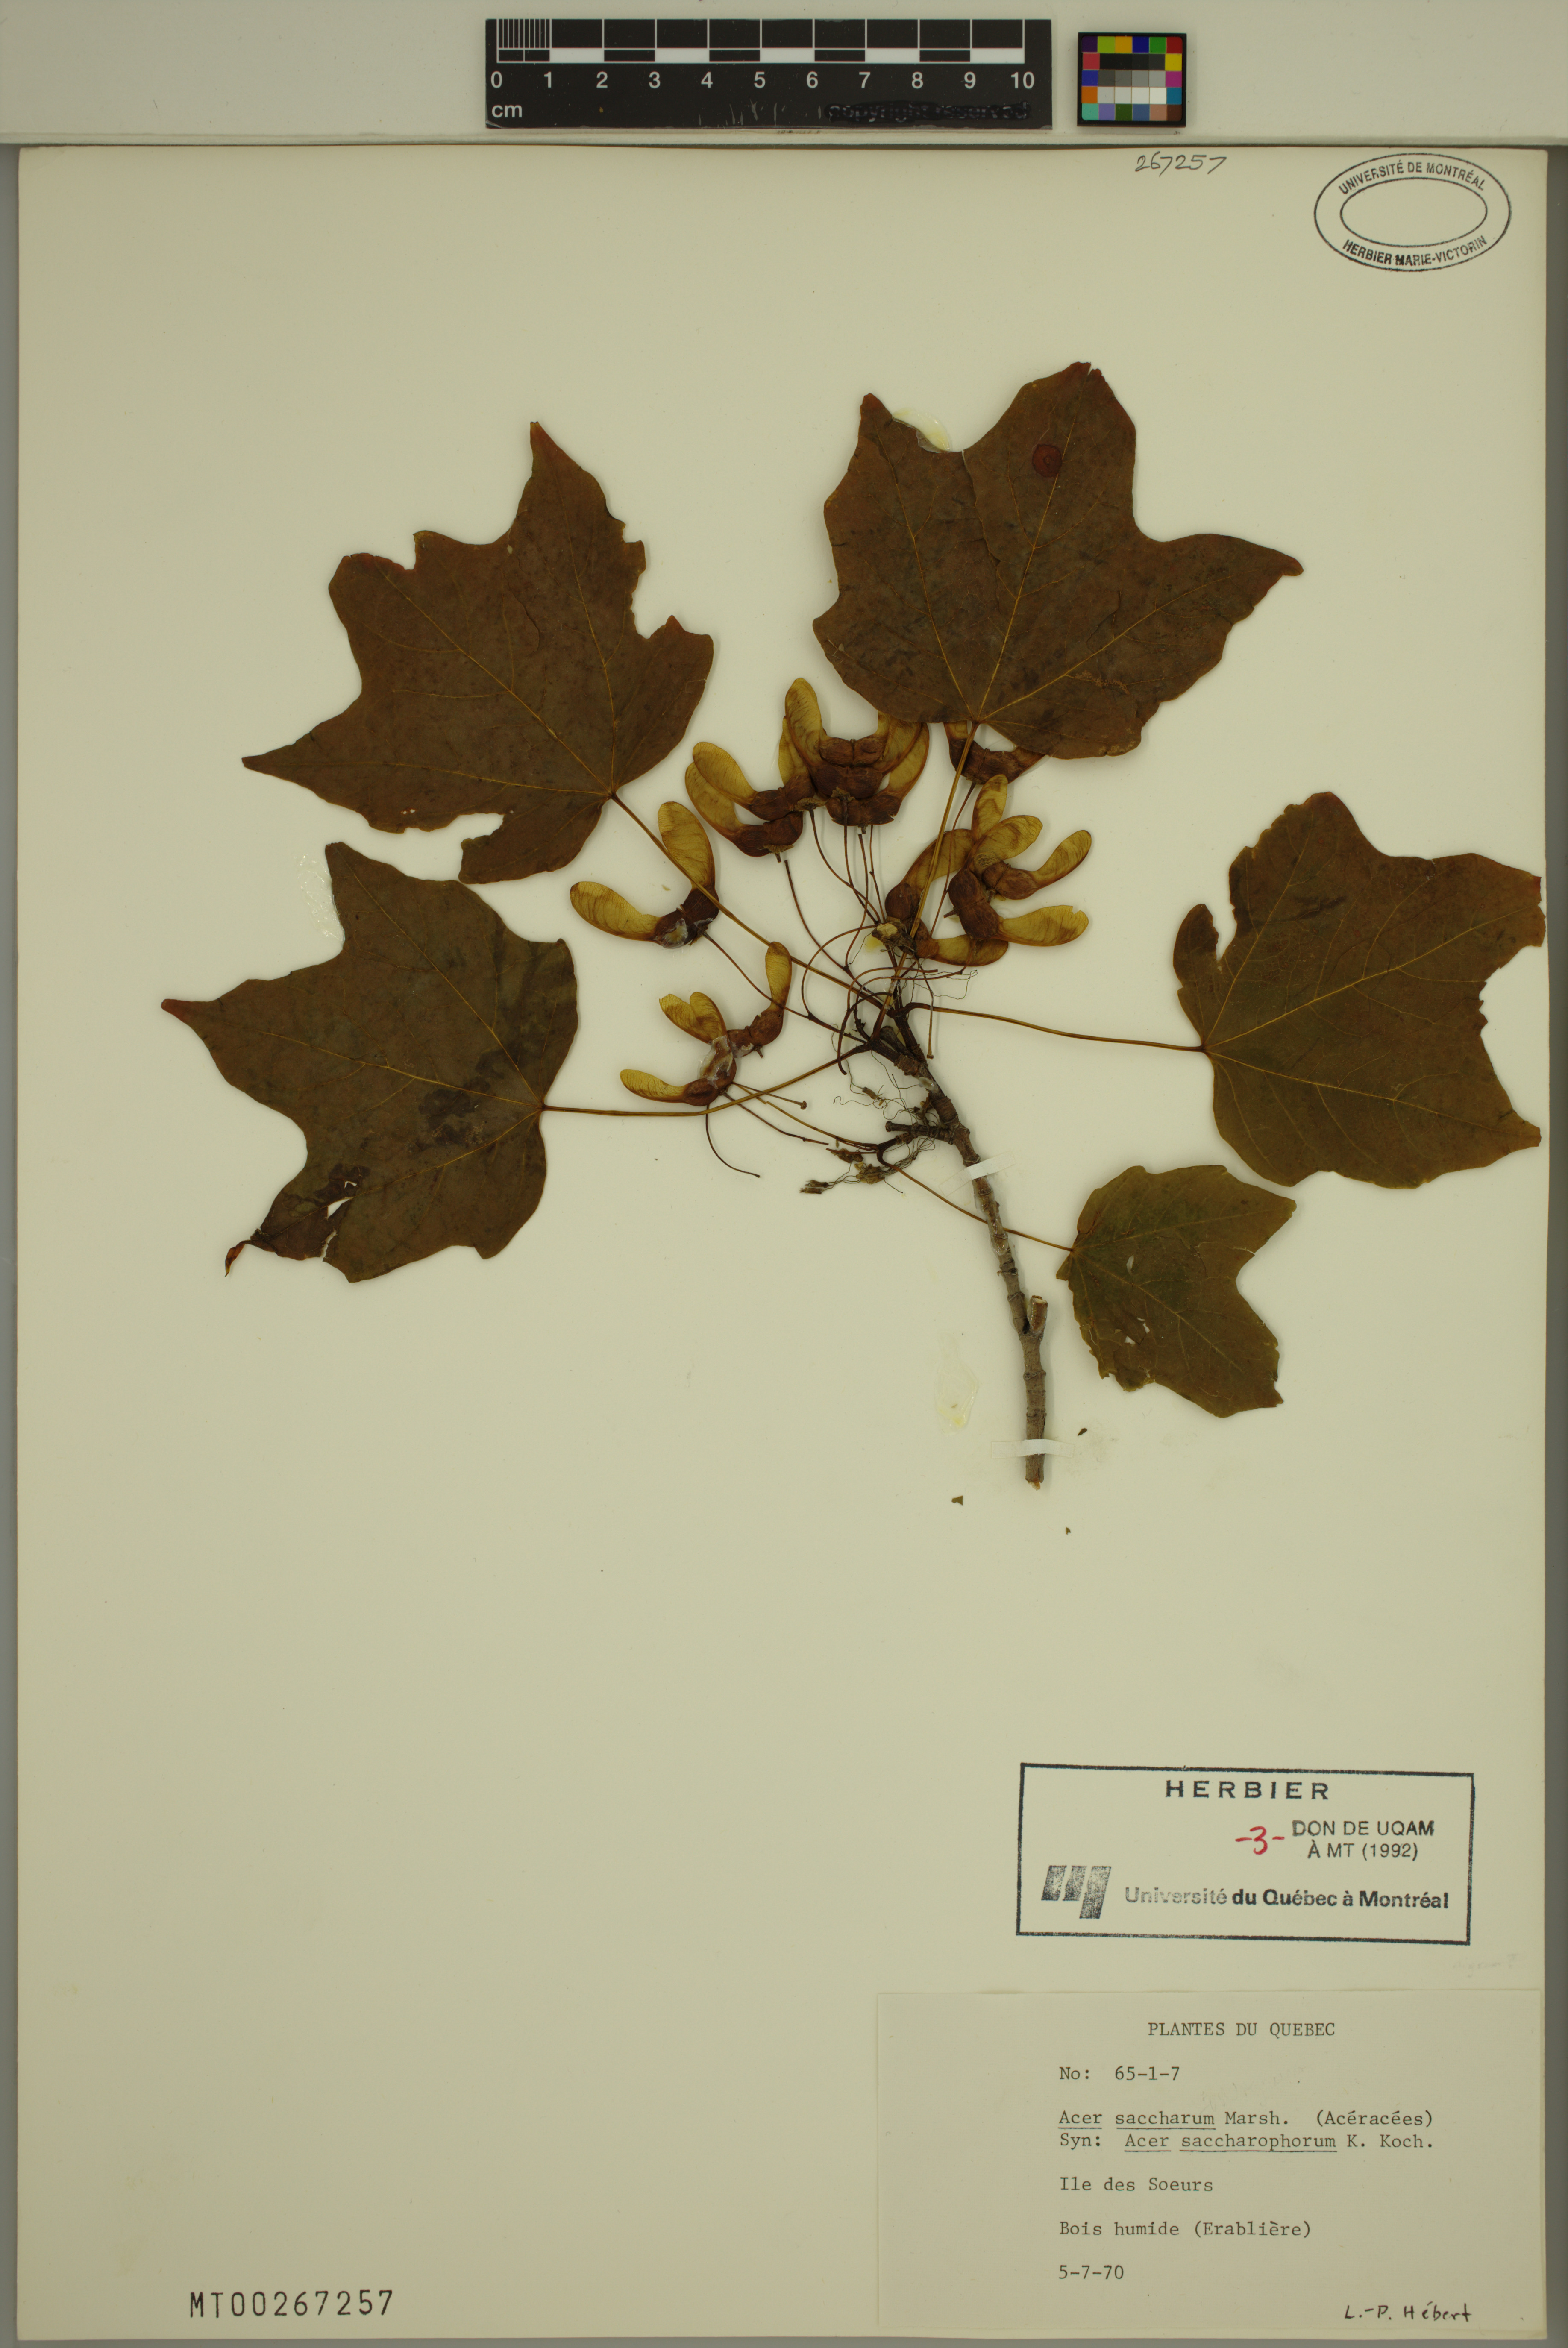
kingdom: Plantae
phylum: Tracheophyta
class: Magnoliopsida
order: Sapindales
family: Sapindaceae
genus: Acer
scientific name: Acer saccharum
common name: Sugar maple
